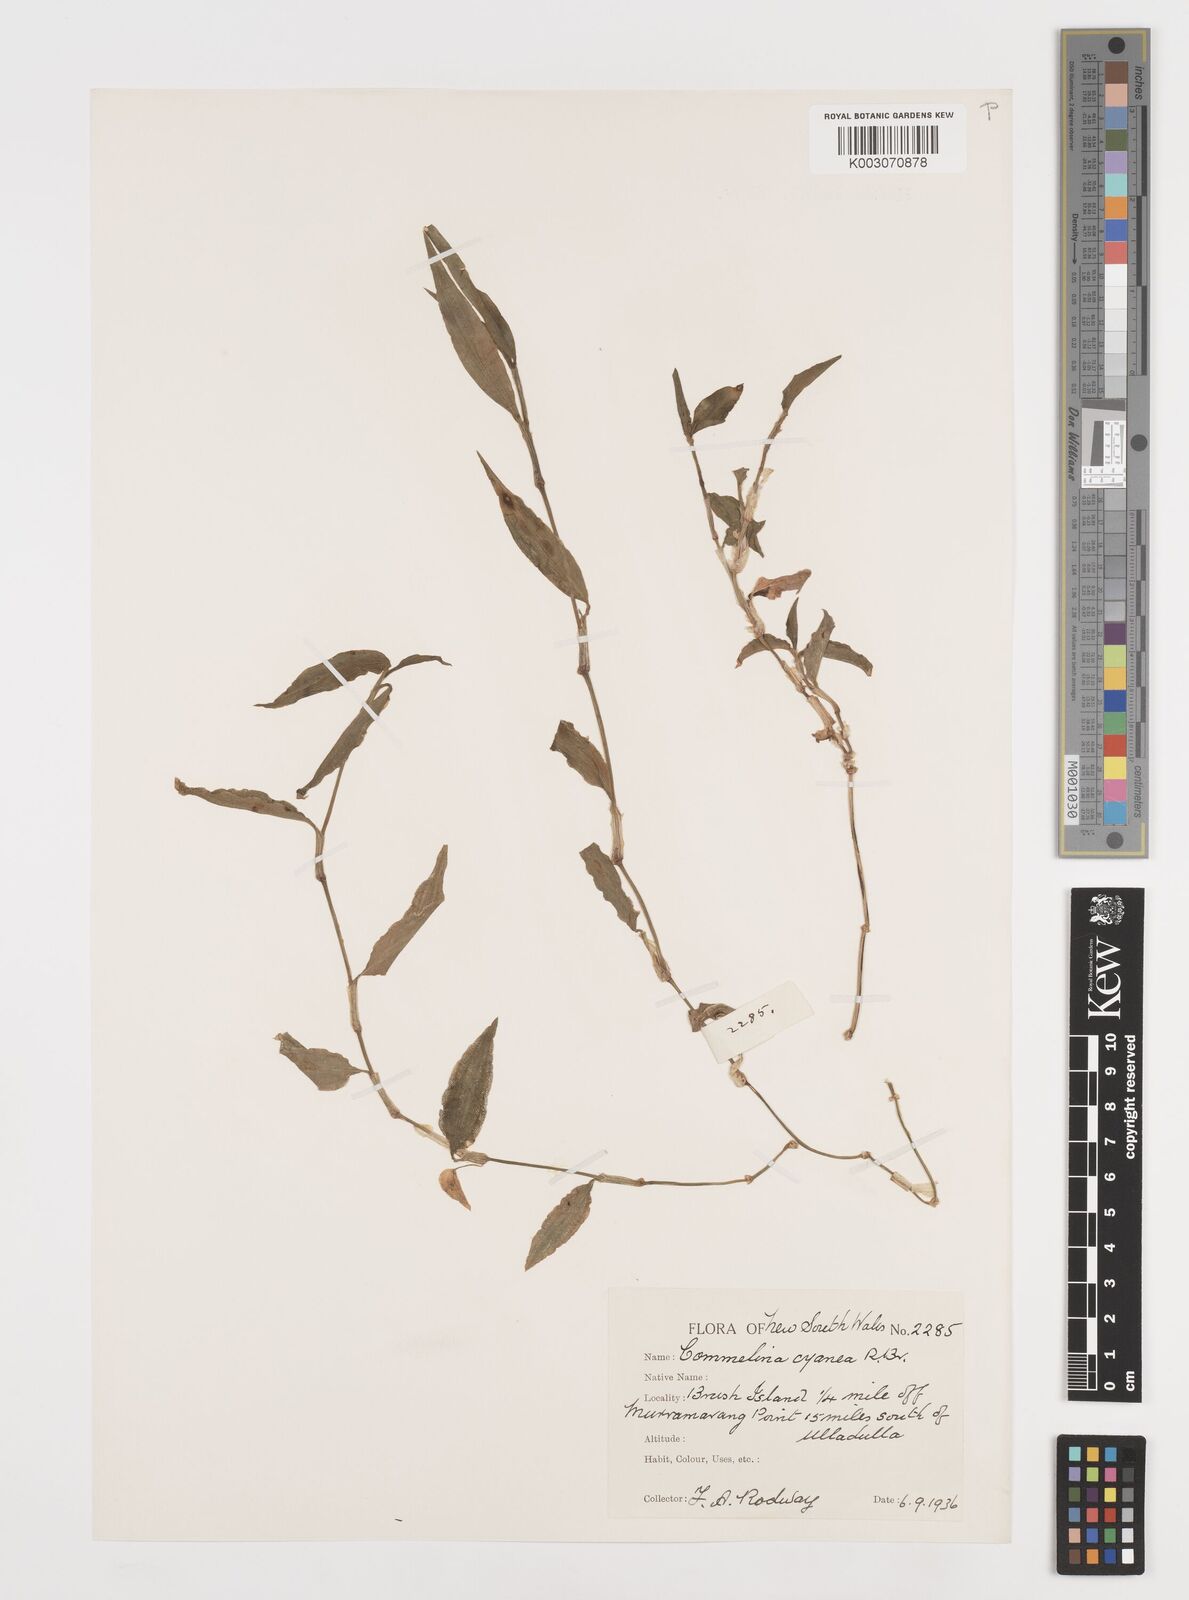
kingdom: Plantae
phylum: Tracheophyta
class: Liliopsida
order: Commelinales
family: Commelinaceae
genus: Commelina
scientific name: Commelina cyanea
